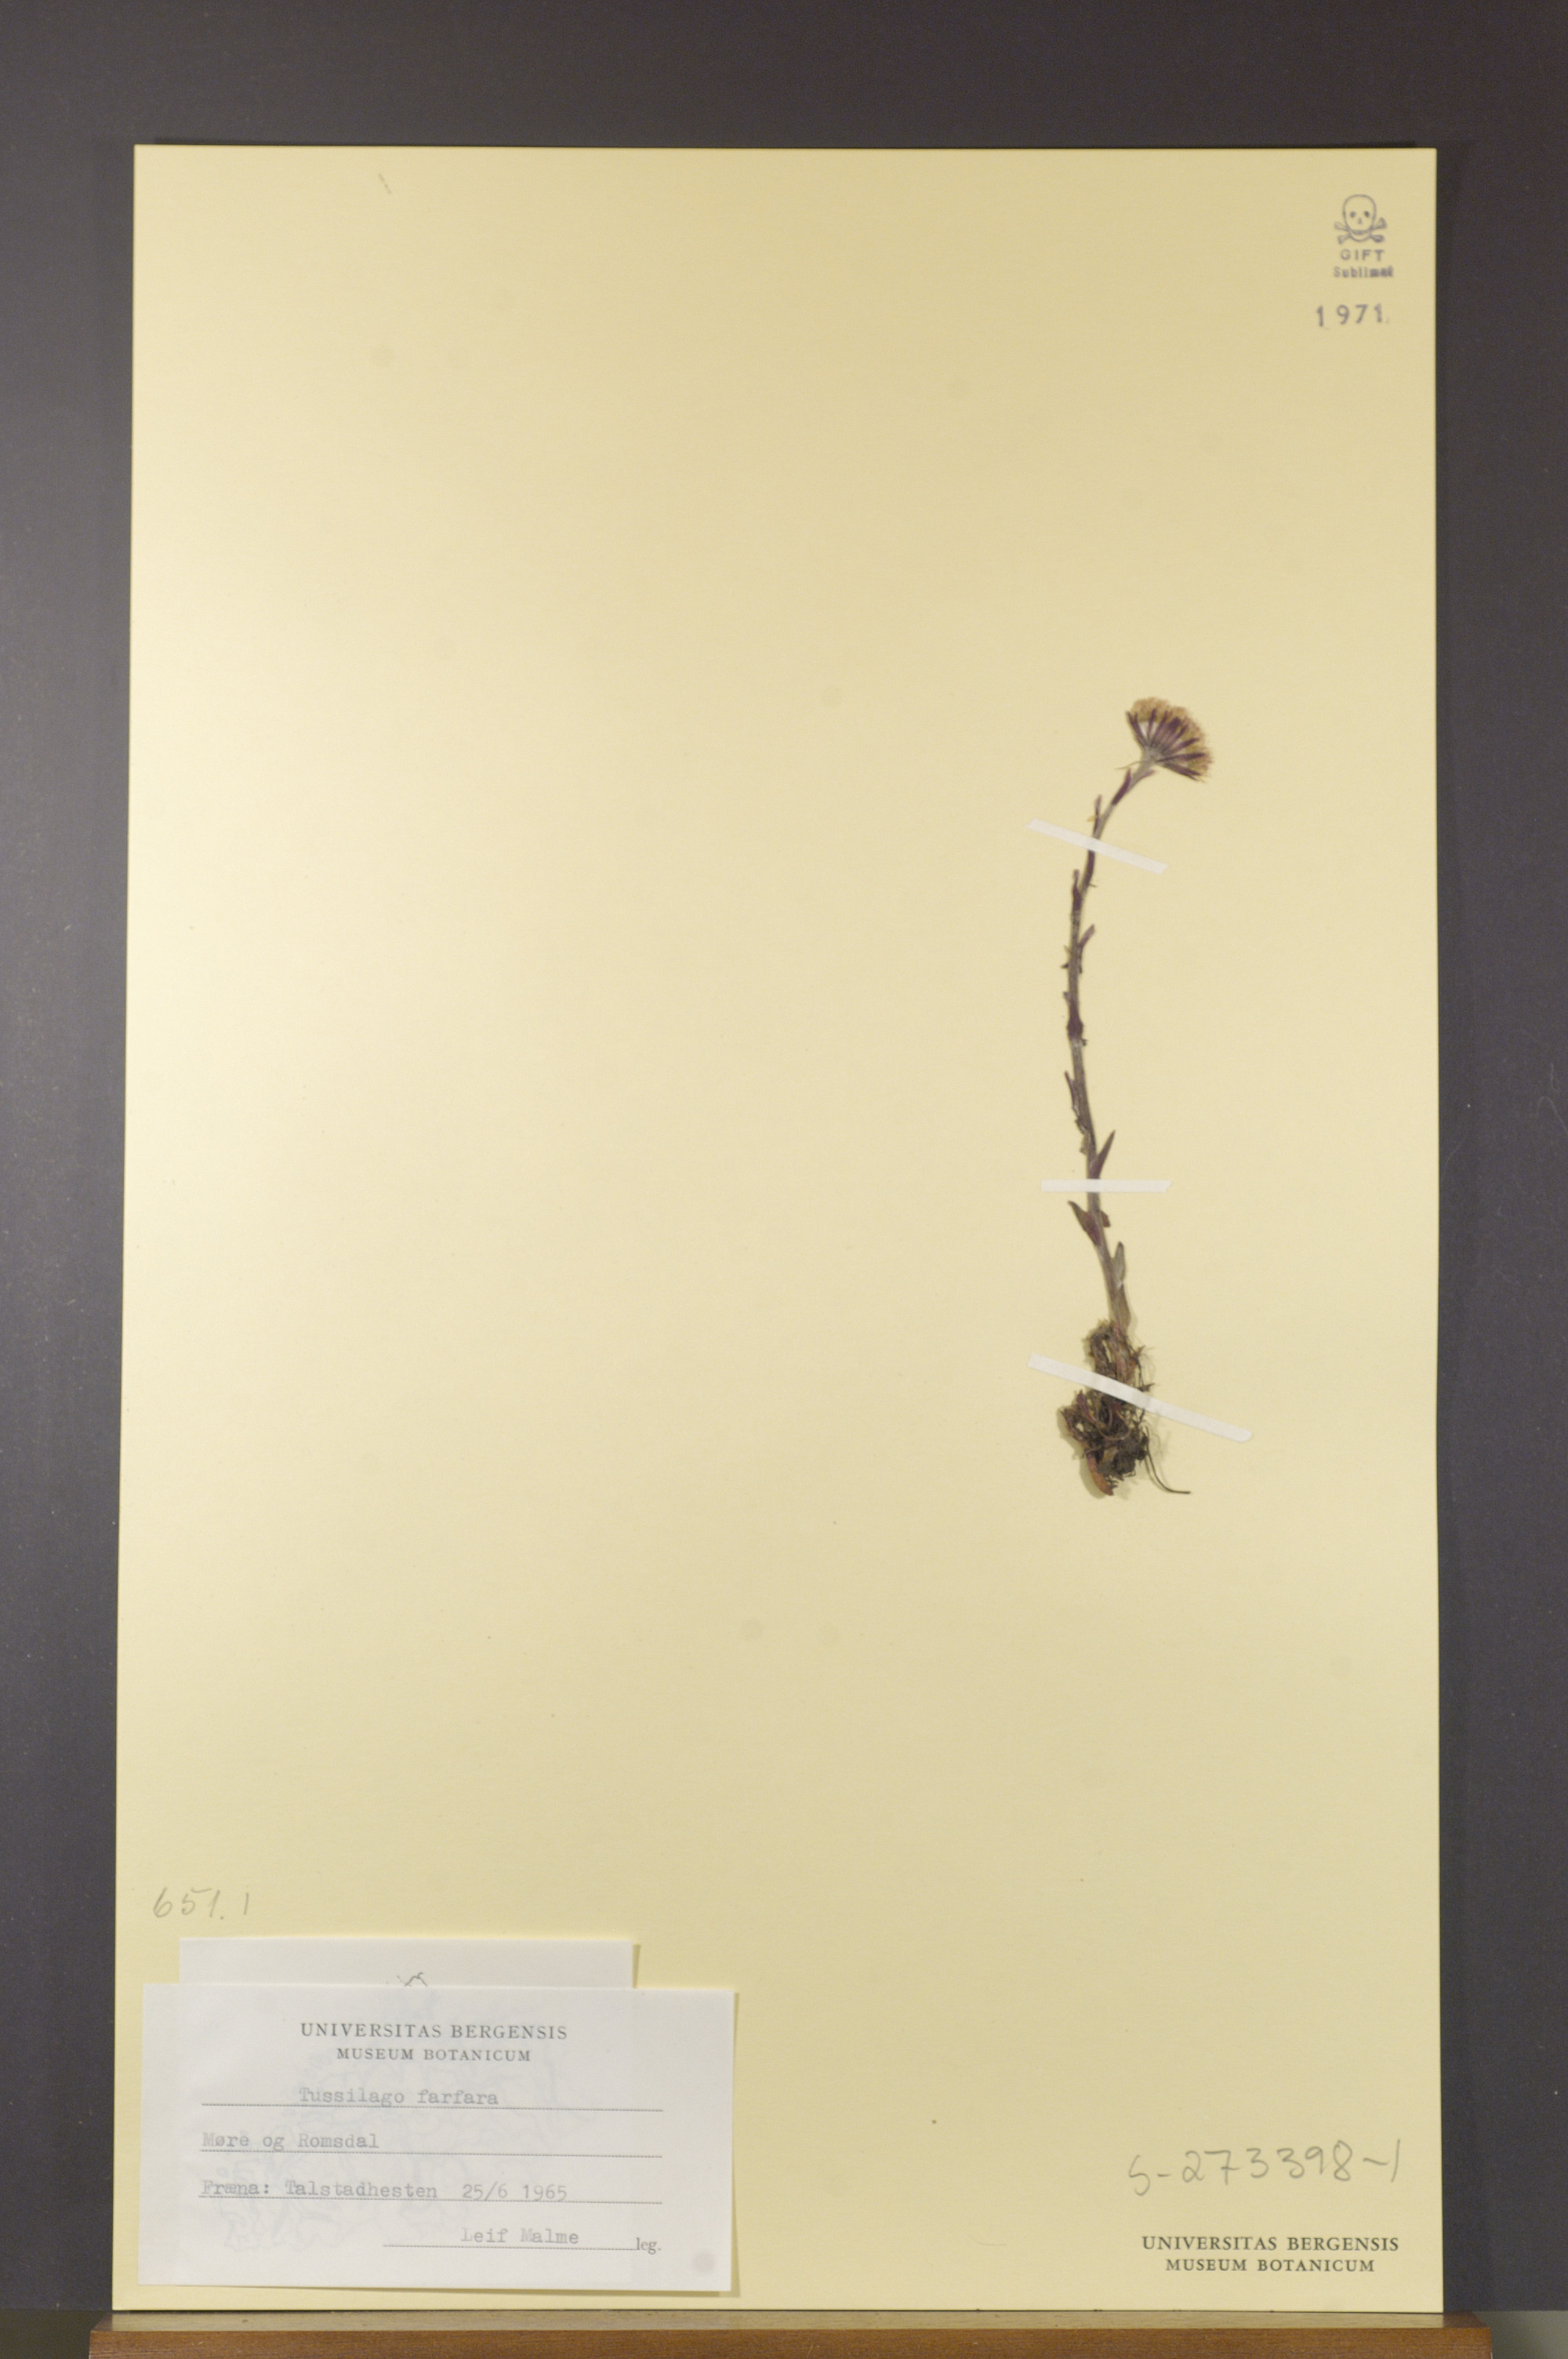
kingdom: Plantae
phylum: Tracheophyta
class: Magnoliopsida
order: Asterales
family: Asteraceae
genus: Tussilago
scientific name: Tussilago farfara
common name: Coltsfoot
